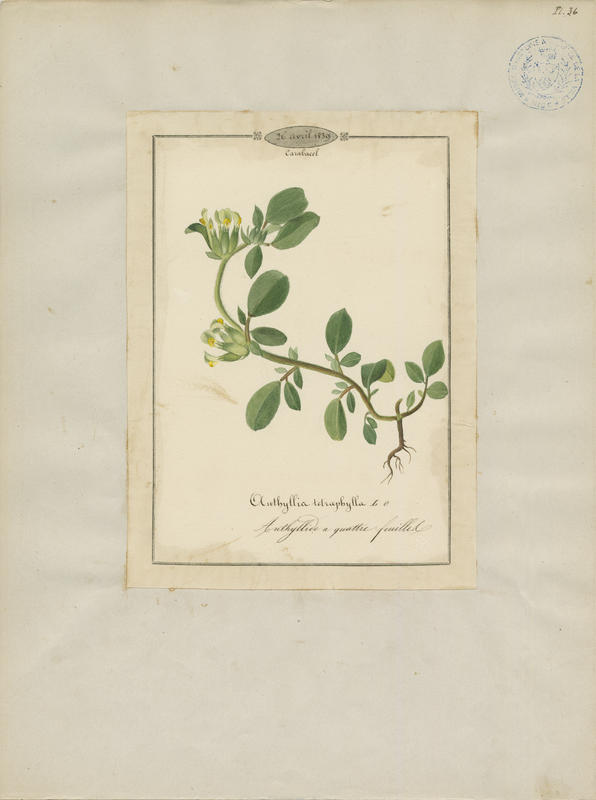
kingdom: Plantae
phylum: Tracheophyta
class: Magnoliopsida
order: Fabales
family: Fabaceae
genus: Tripodion
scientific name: Tripodion tetraphyllum
